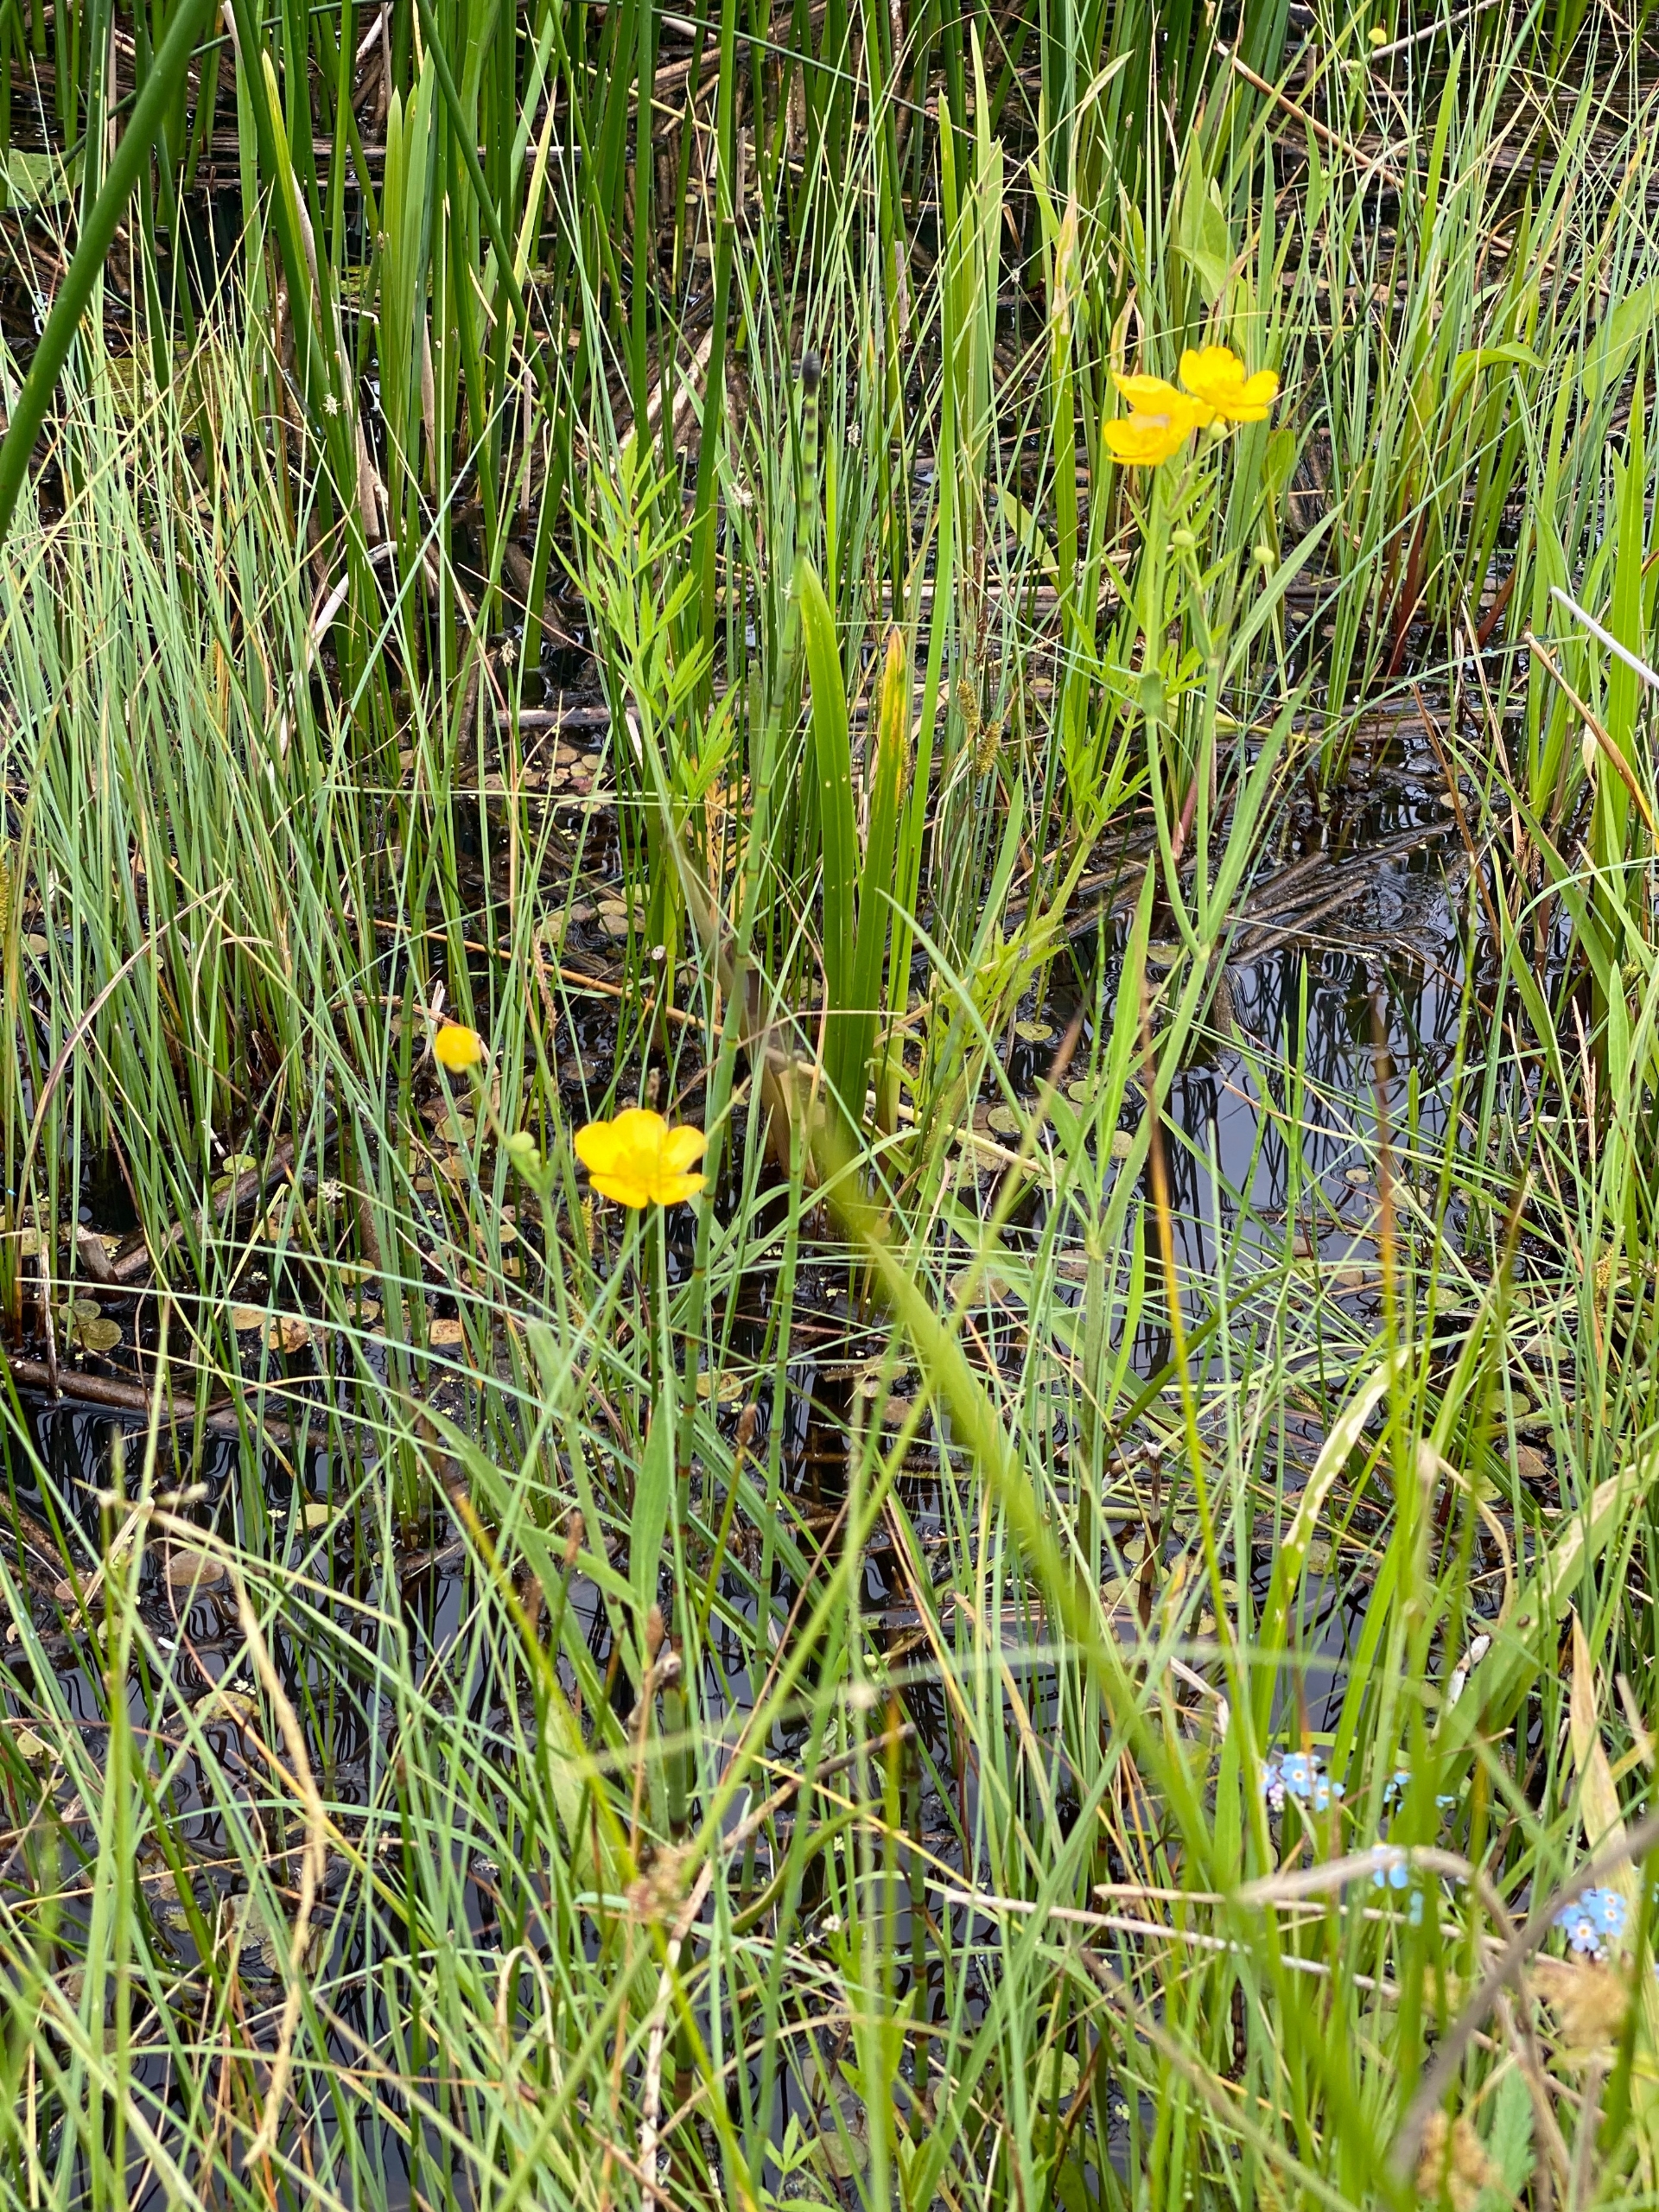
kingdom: Plantae
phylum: Tracheophyta
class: Magnoliopsida
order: Ranunculales
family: Ranunculaceae
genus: Ranunculus
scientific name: Ranunculus lingua
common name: Langbladet ranunkel
